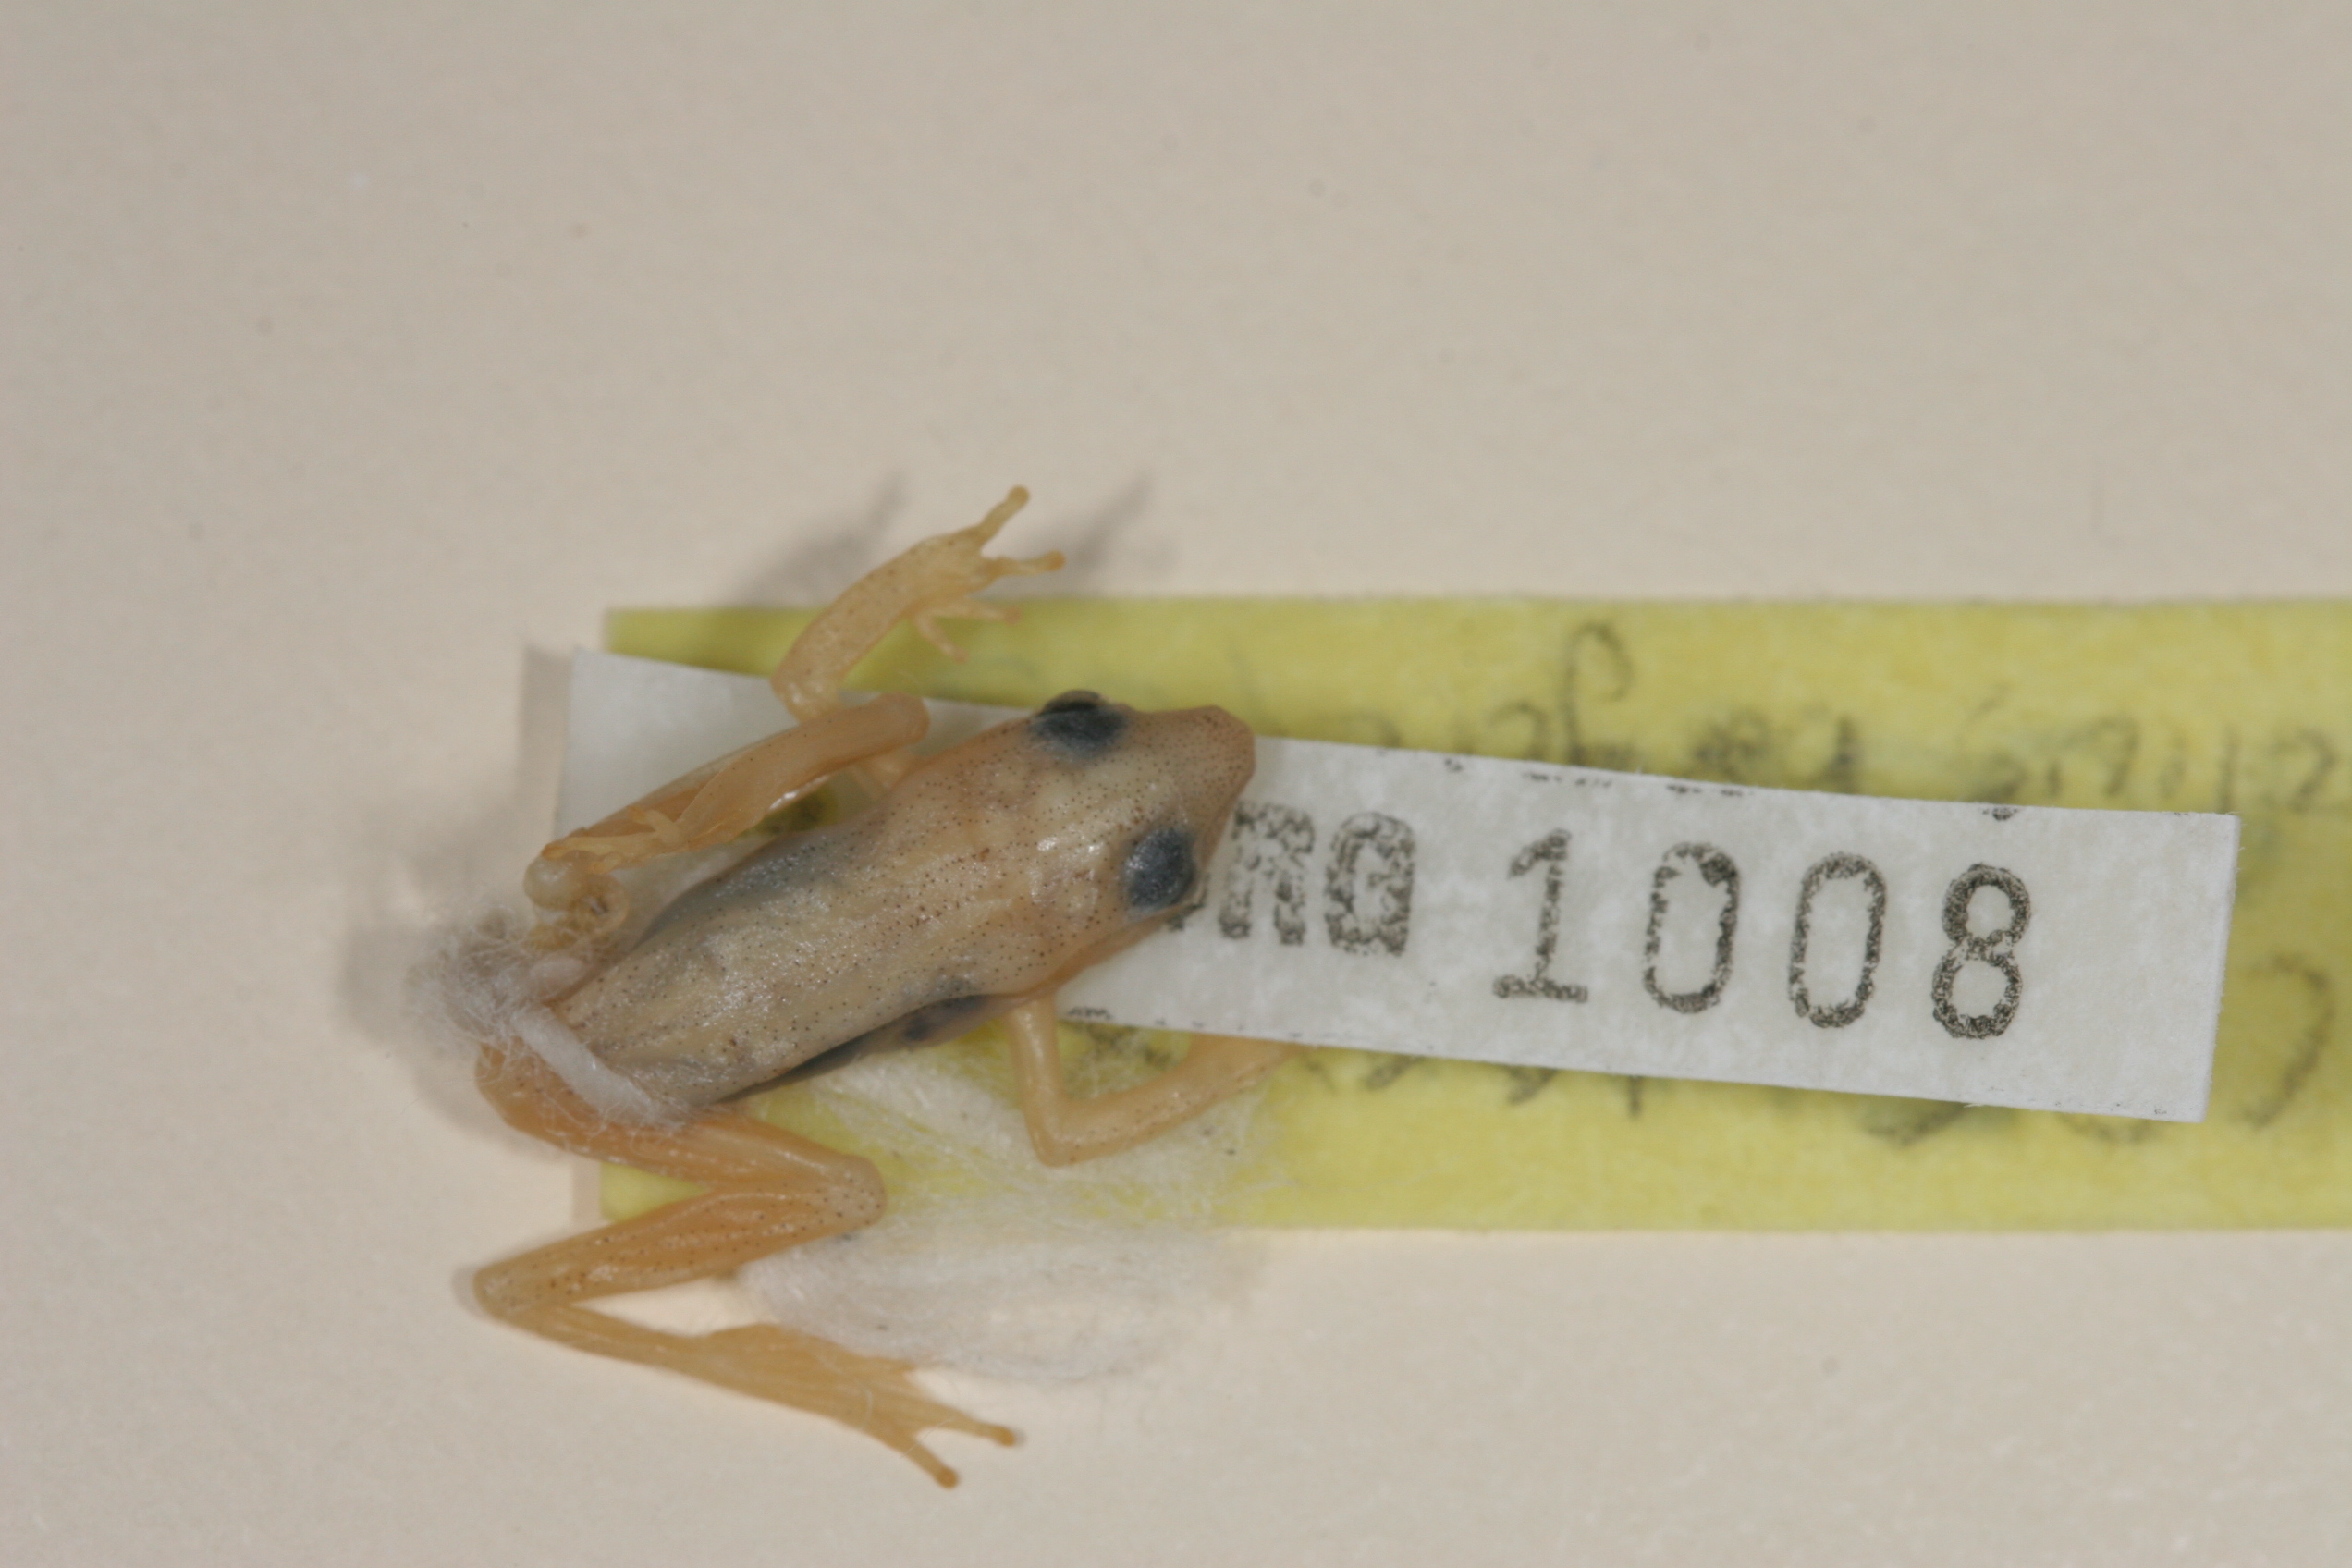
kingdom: Animalia
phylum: Chordata
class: Amphibia
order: Anura
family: Hyperoliidae
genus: Hyperolius
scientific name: Hyperolius benguellensis
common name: Benguella reed frog
